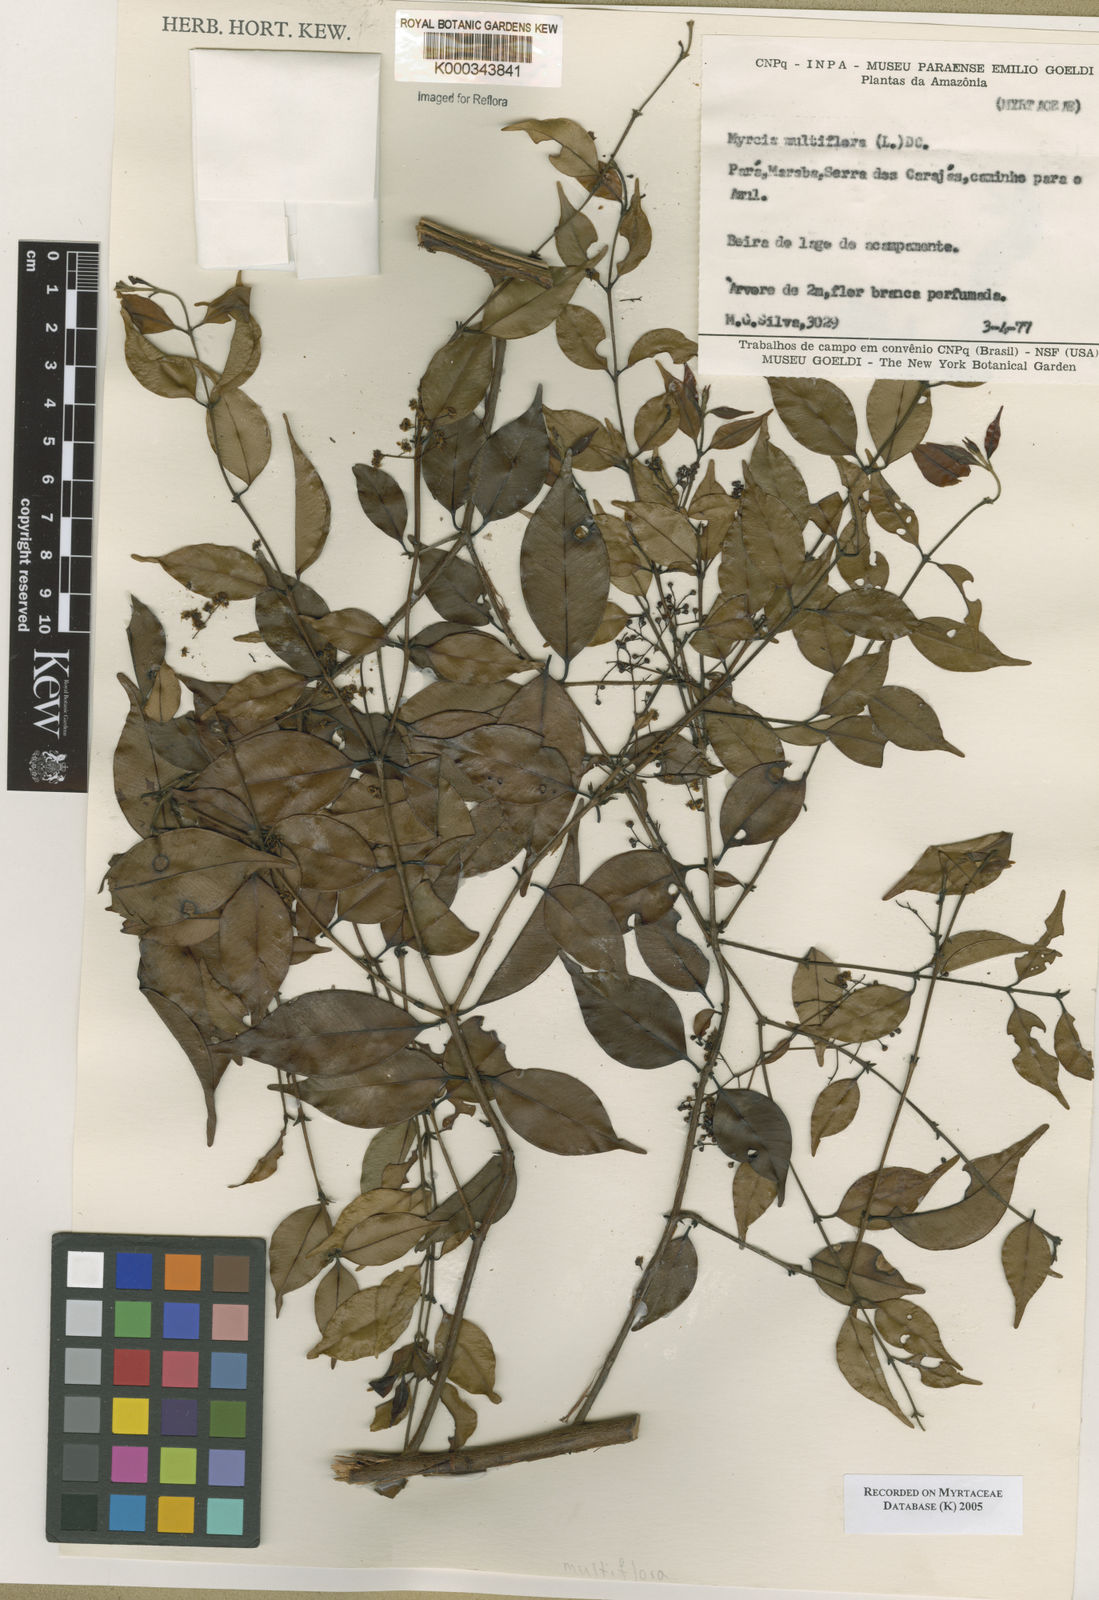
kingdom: Plantae
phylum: Tracheophyta
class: Magnoliopsida
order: Myrtales
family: Myrtaceae
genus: Myrcia
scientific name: Myrcia multiflora
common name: Pedra hume
